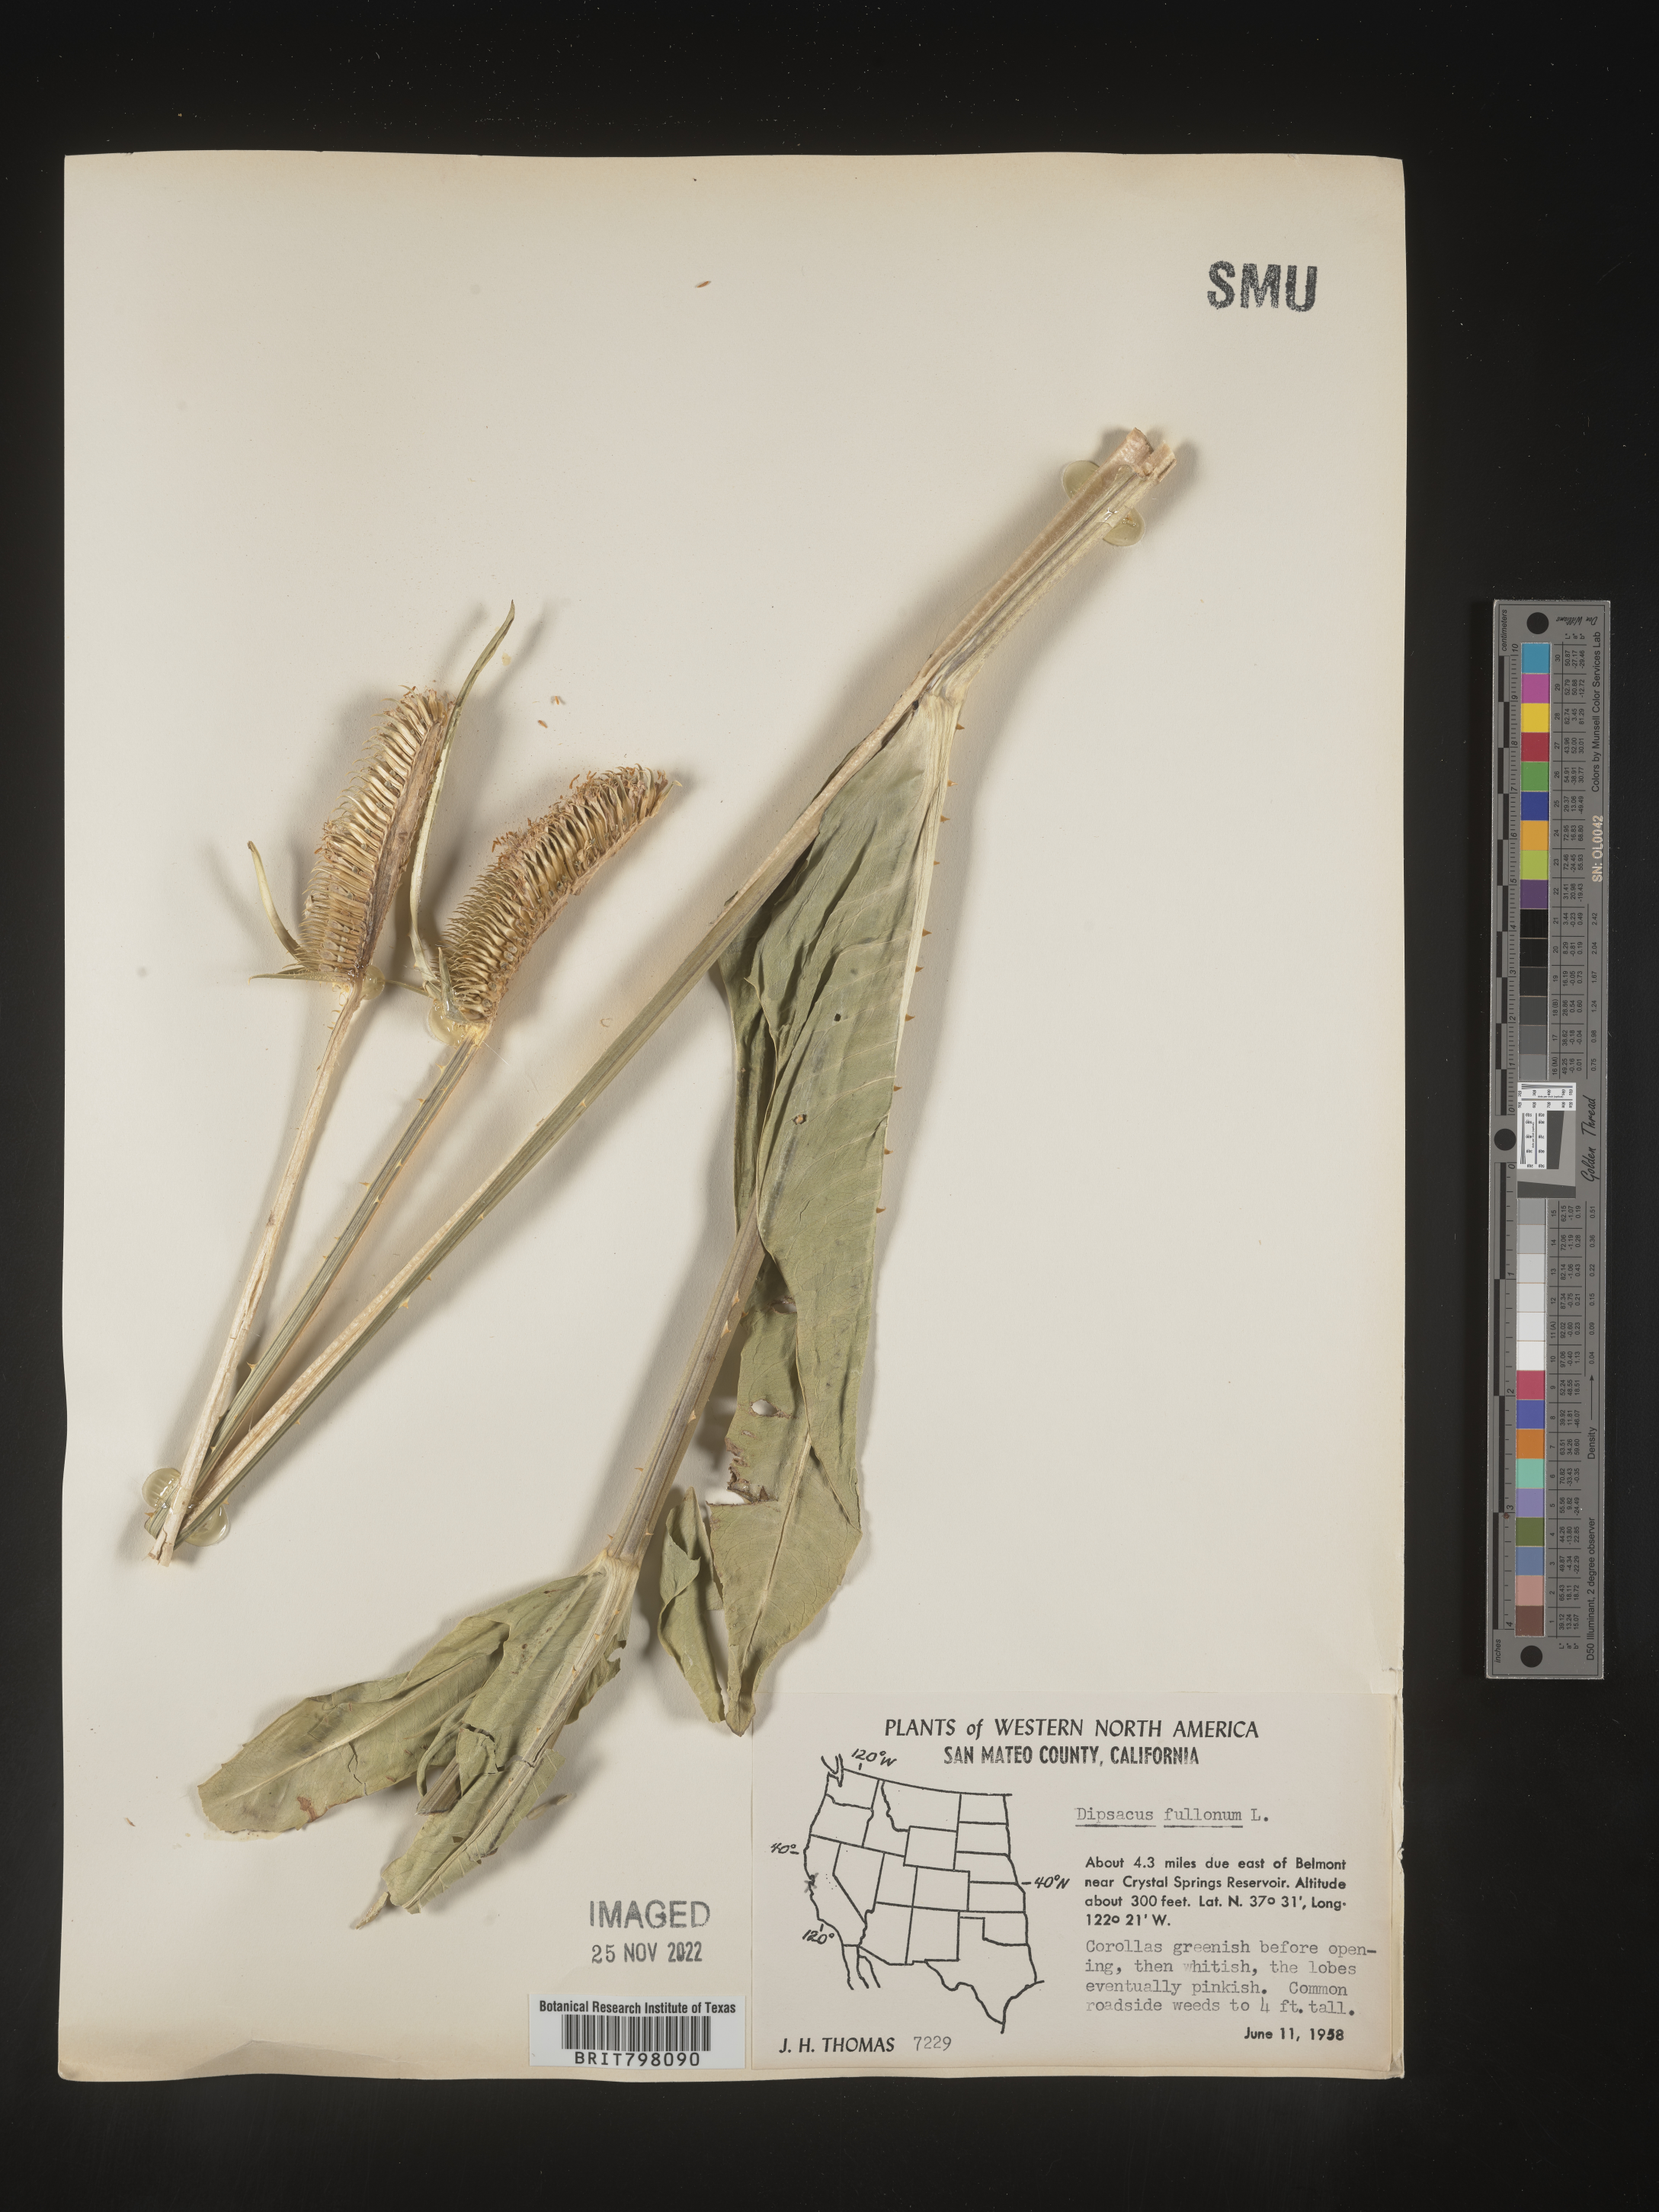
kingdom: Plantae
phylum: Tracheophyta
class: Magnoliopsida
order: Dipsacales
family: Caprifoliaceae
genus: Dipsacus
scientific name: Dipsacus
